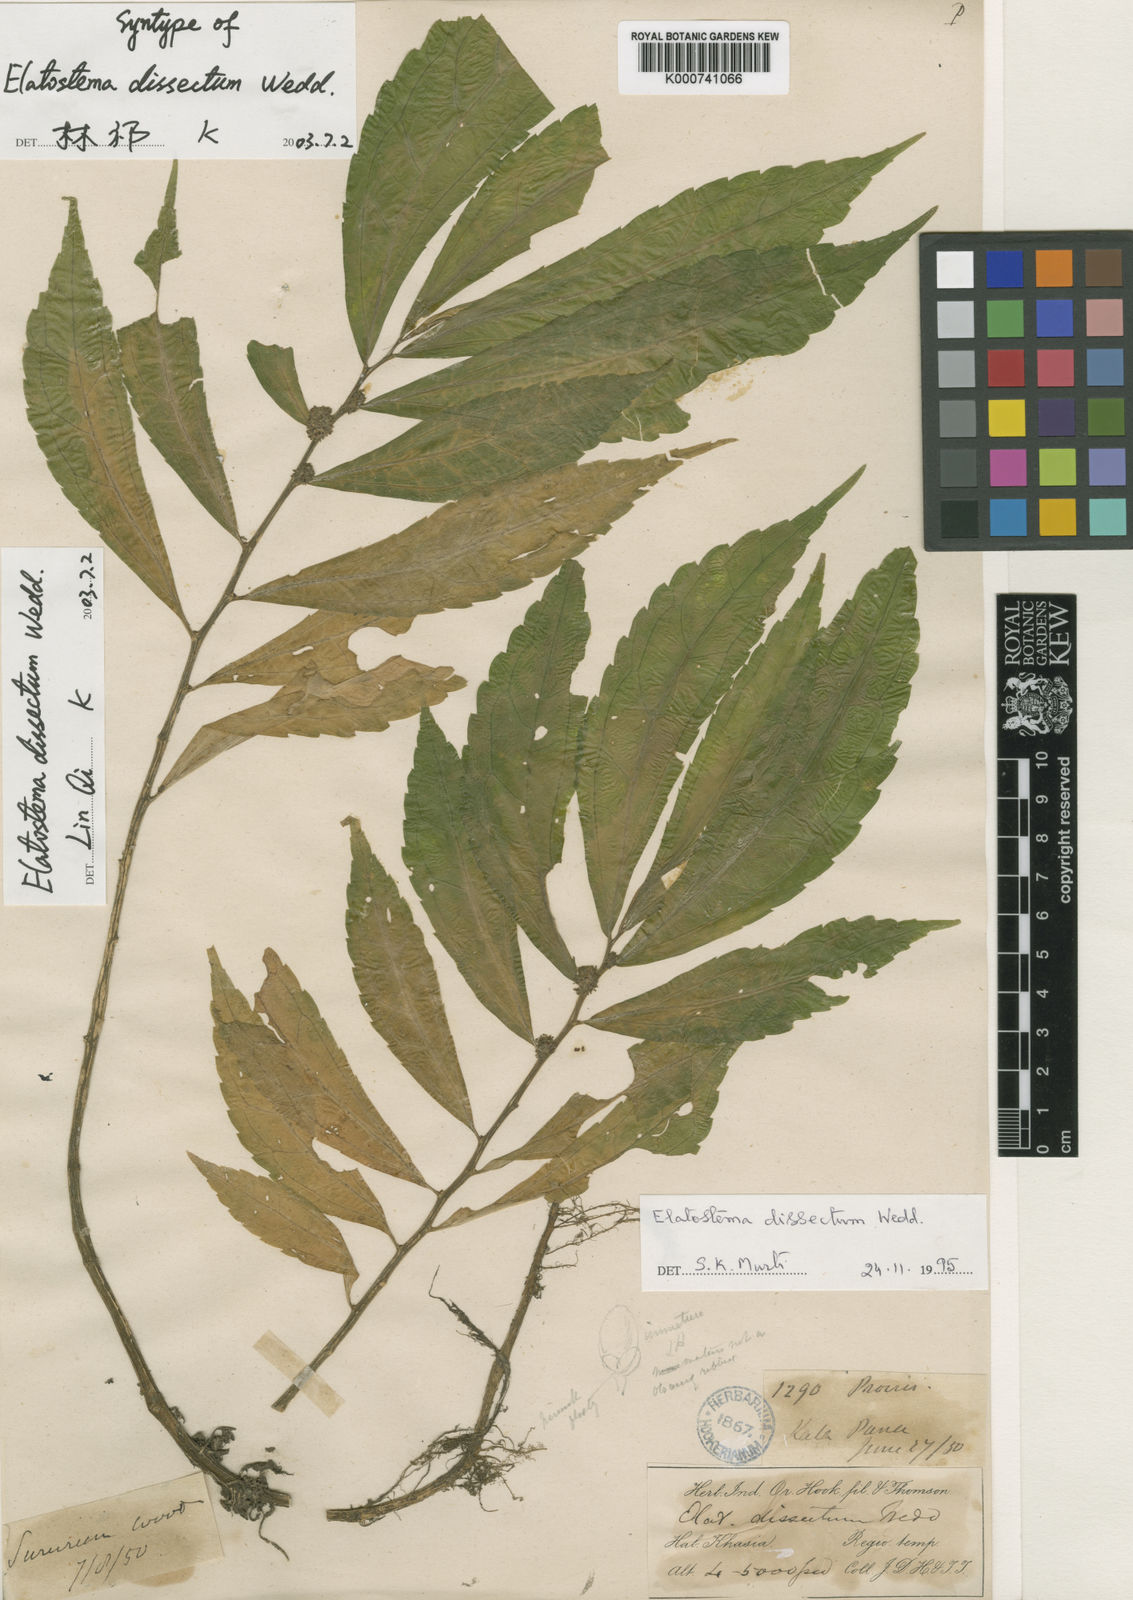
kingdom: Plantae
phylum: Tracheophyta
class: Magnoliopsida
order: Rosales
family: Urticaceae
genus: Elatostema
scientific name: Elatostema dissectum
